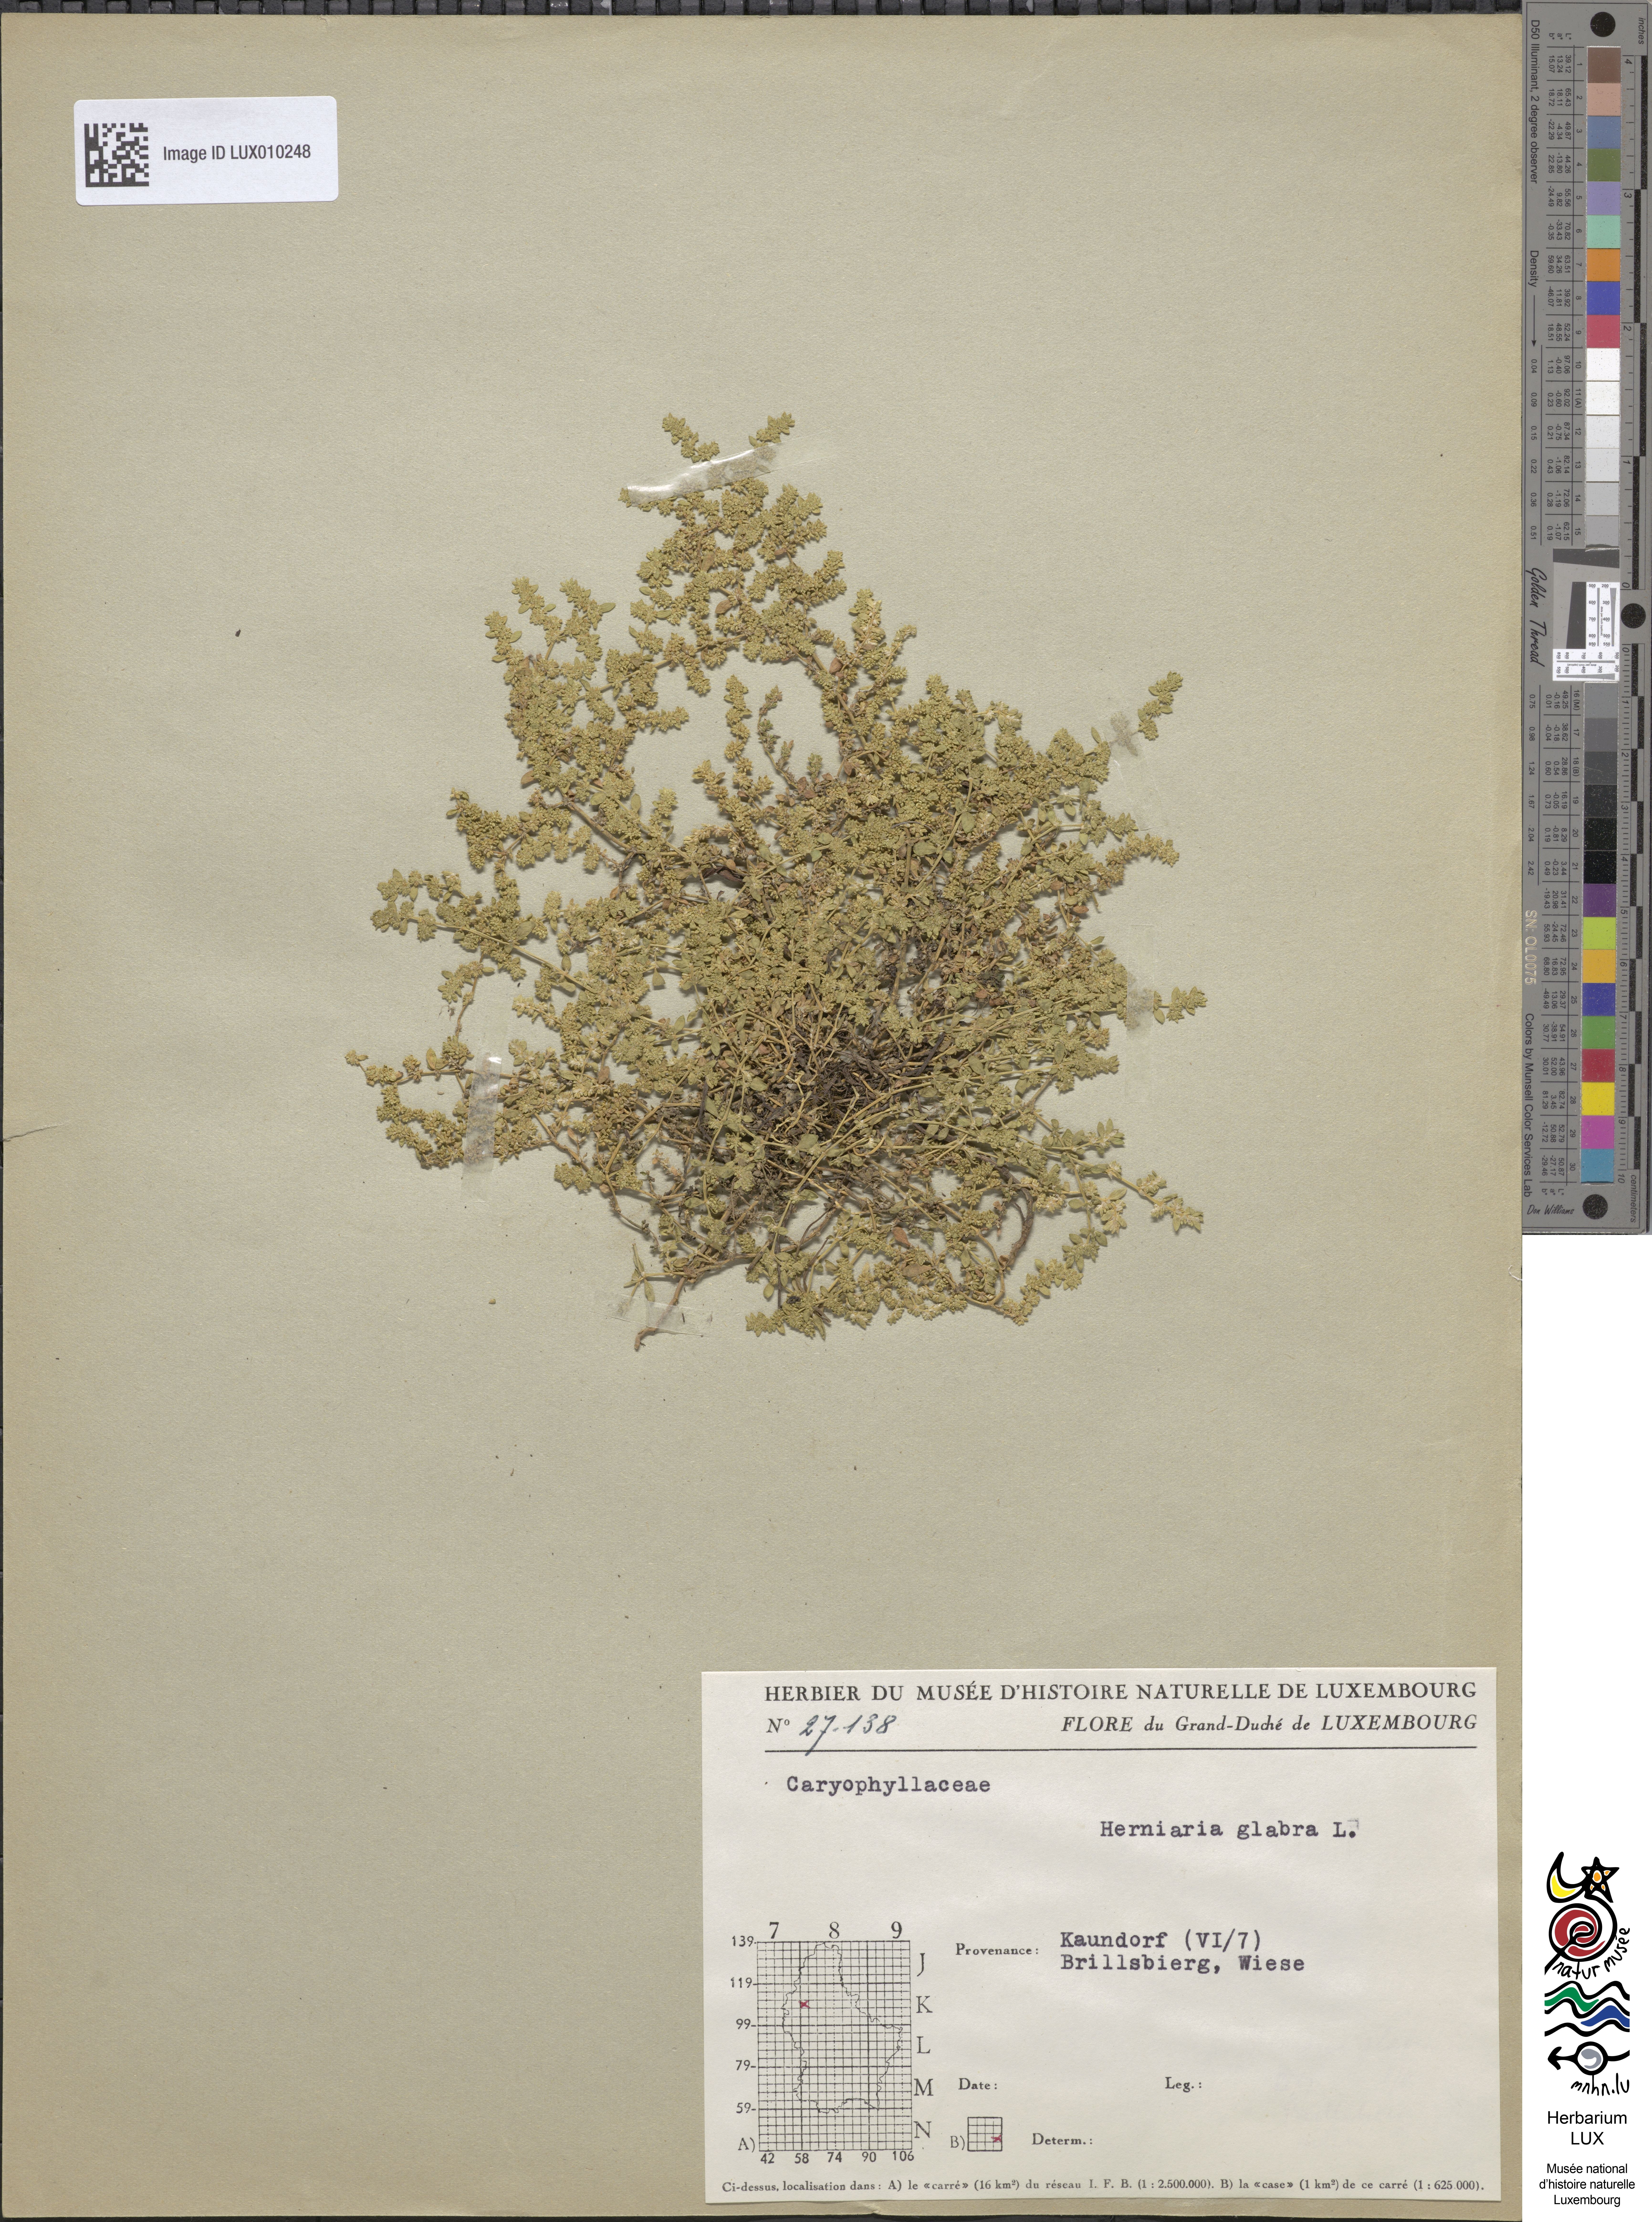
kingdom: Plantae
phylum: Tracheophyta
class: Magnoliopsida
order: Caryophyllales
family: Caryophyllaceae
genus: Herniaria
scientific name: Herniaria glabra
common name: Smooth rupturewort
